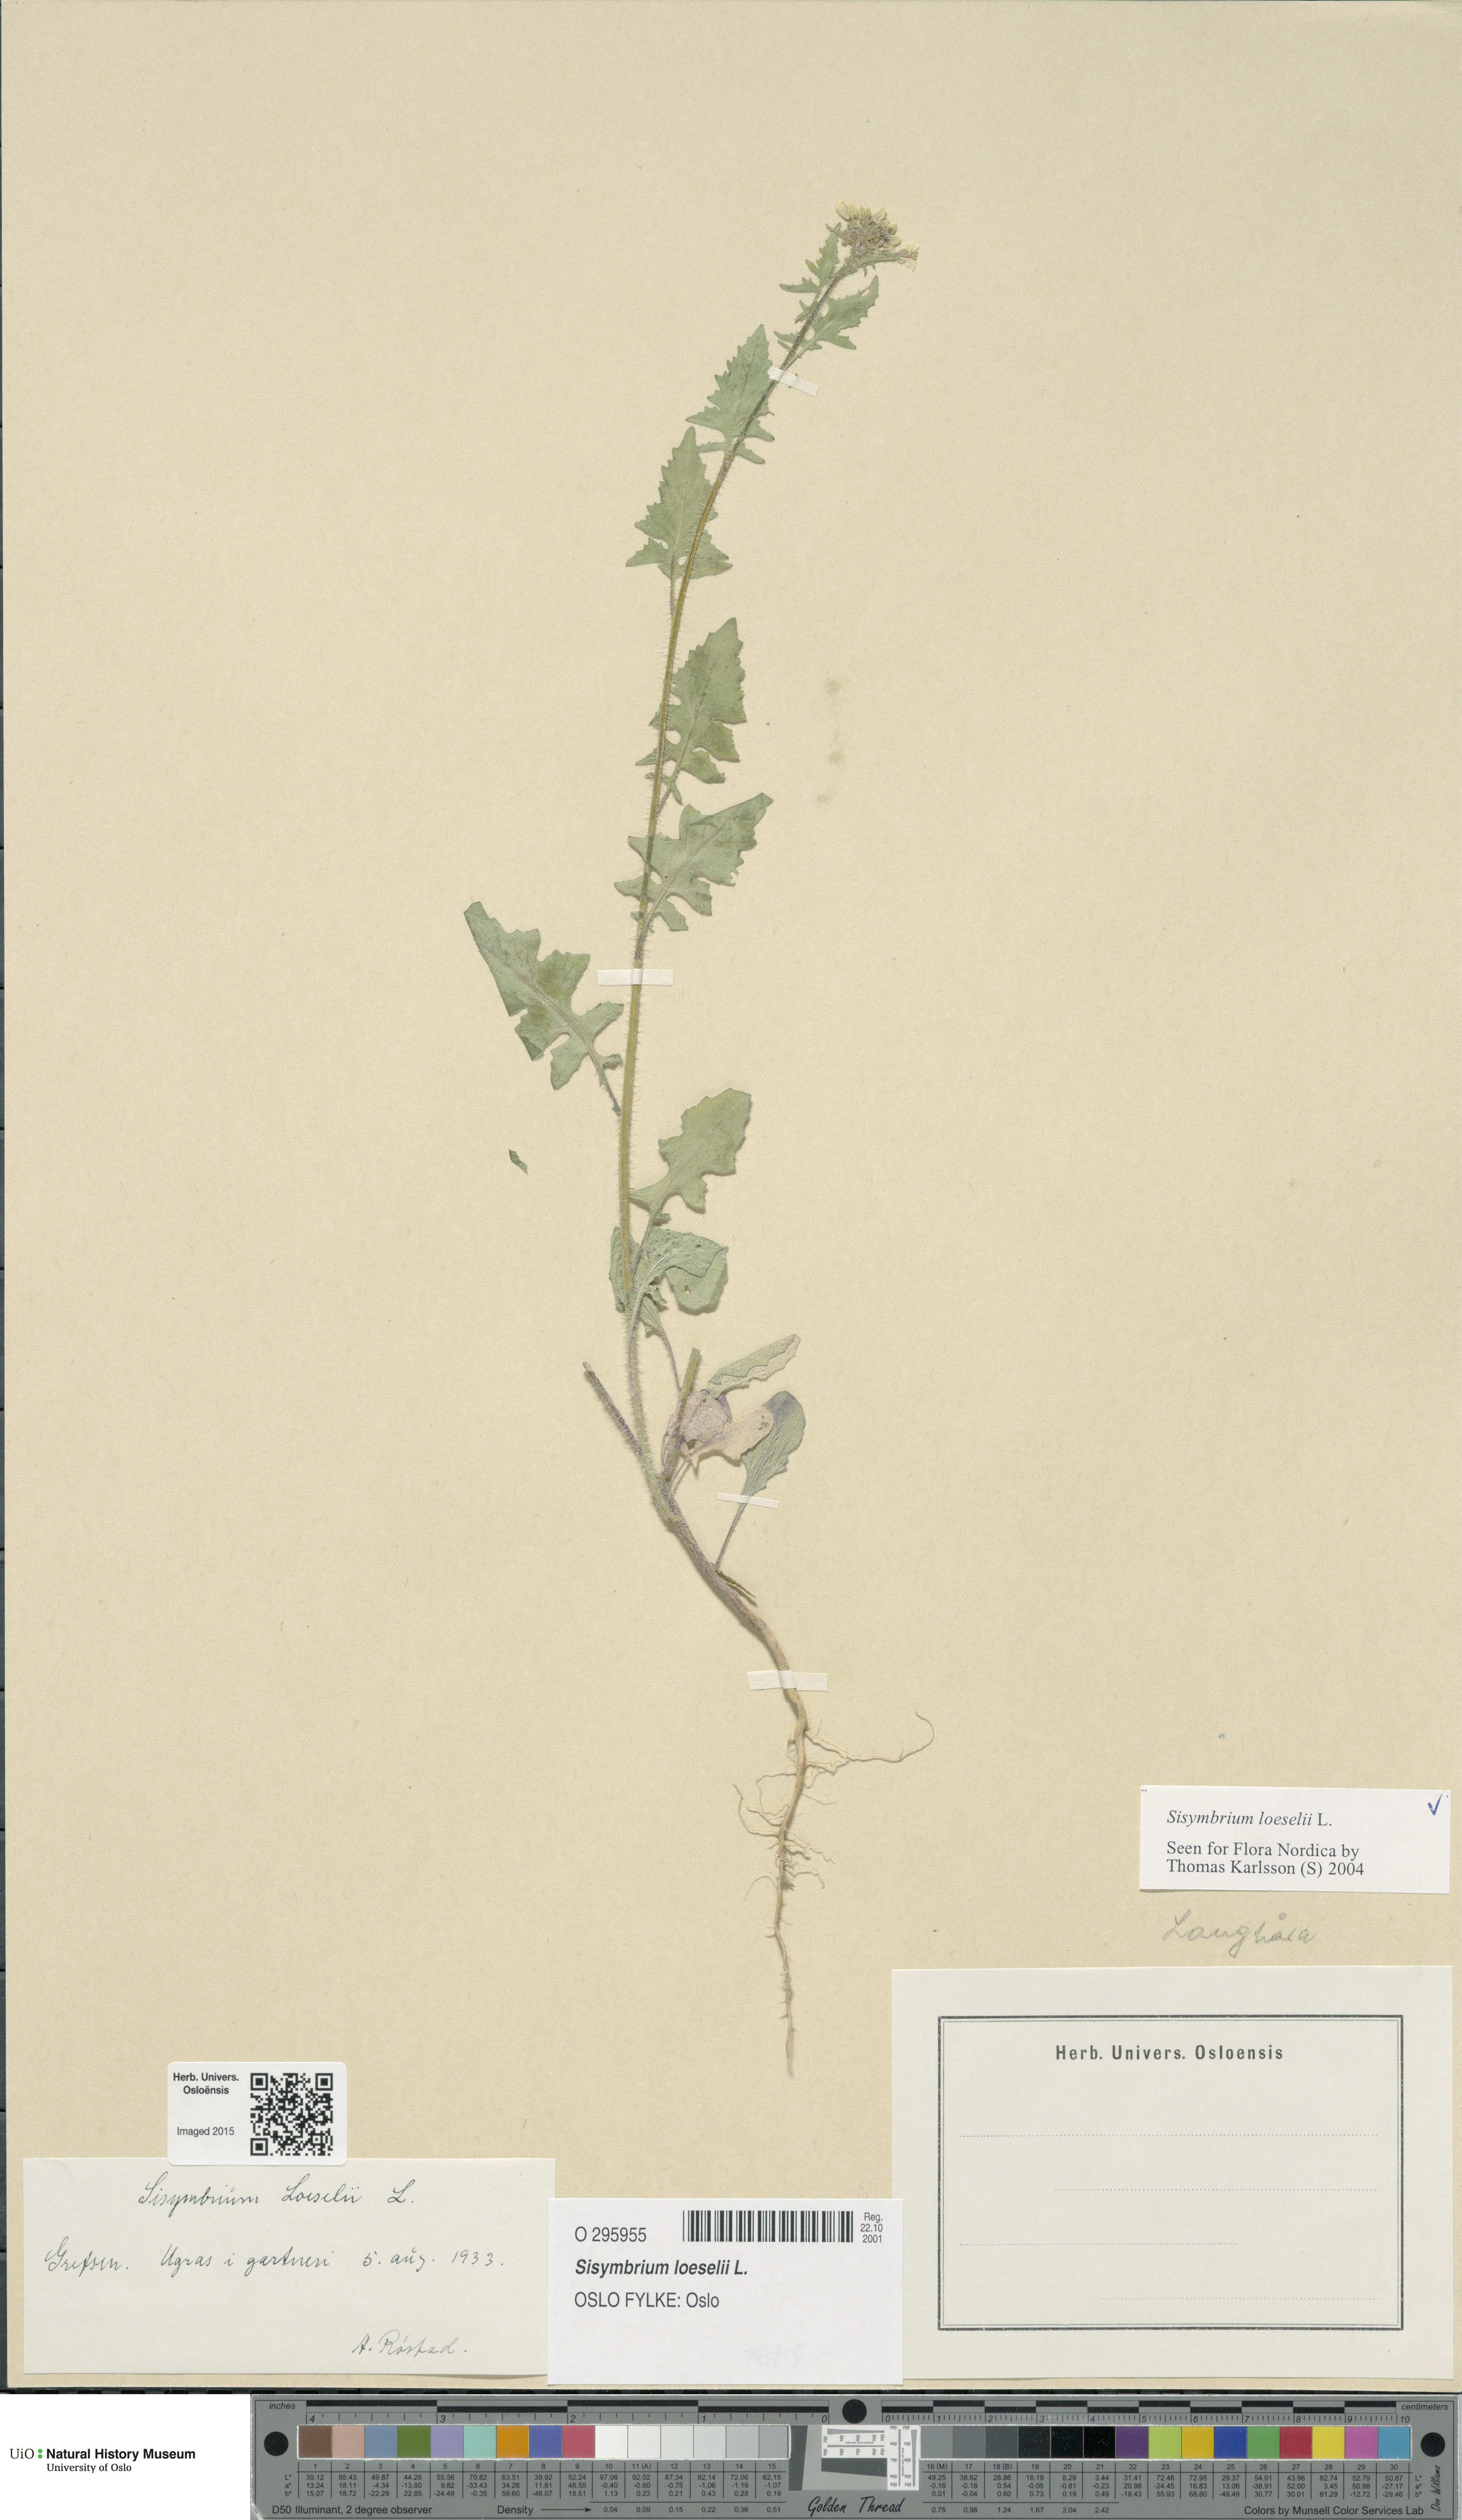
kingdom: Plantae
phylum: Tracheophyta
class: Magnoliopsida
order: Brassicales
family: Brassicaceae
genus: Sisymbrium
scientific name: Sisymbrium loeselii
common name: False london-rocket
